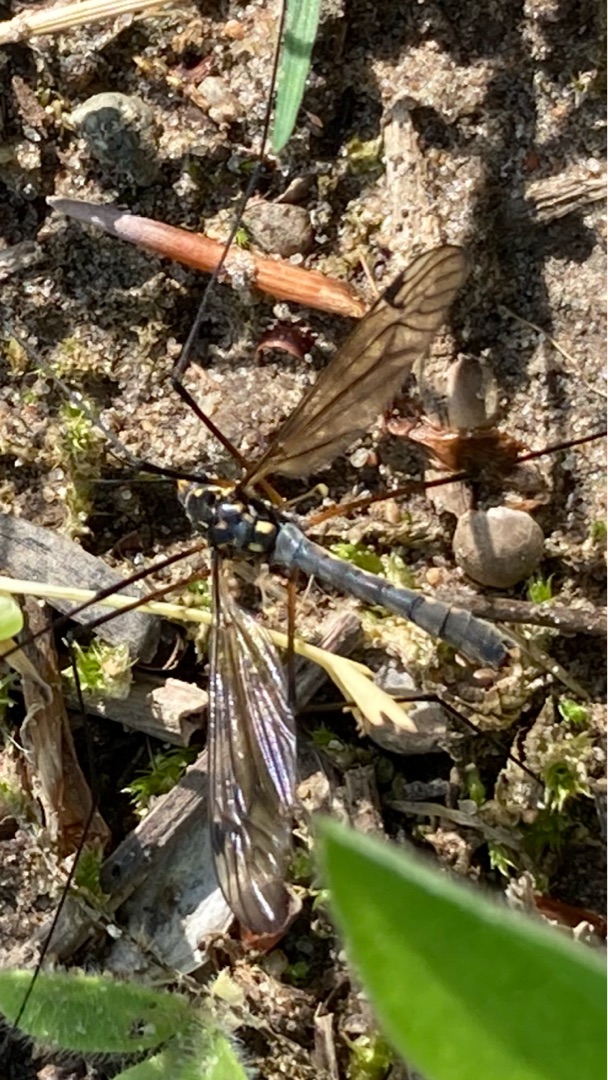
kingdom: Animalia
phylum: Arthropoda
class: Insecta
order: Diptera
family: Tipulidae
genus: Nephrotoma
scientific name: Nephrotoma pratensis
